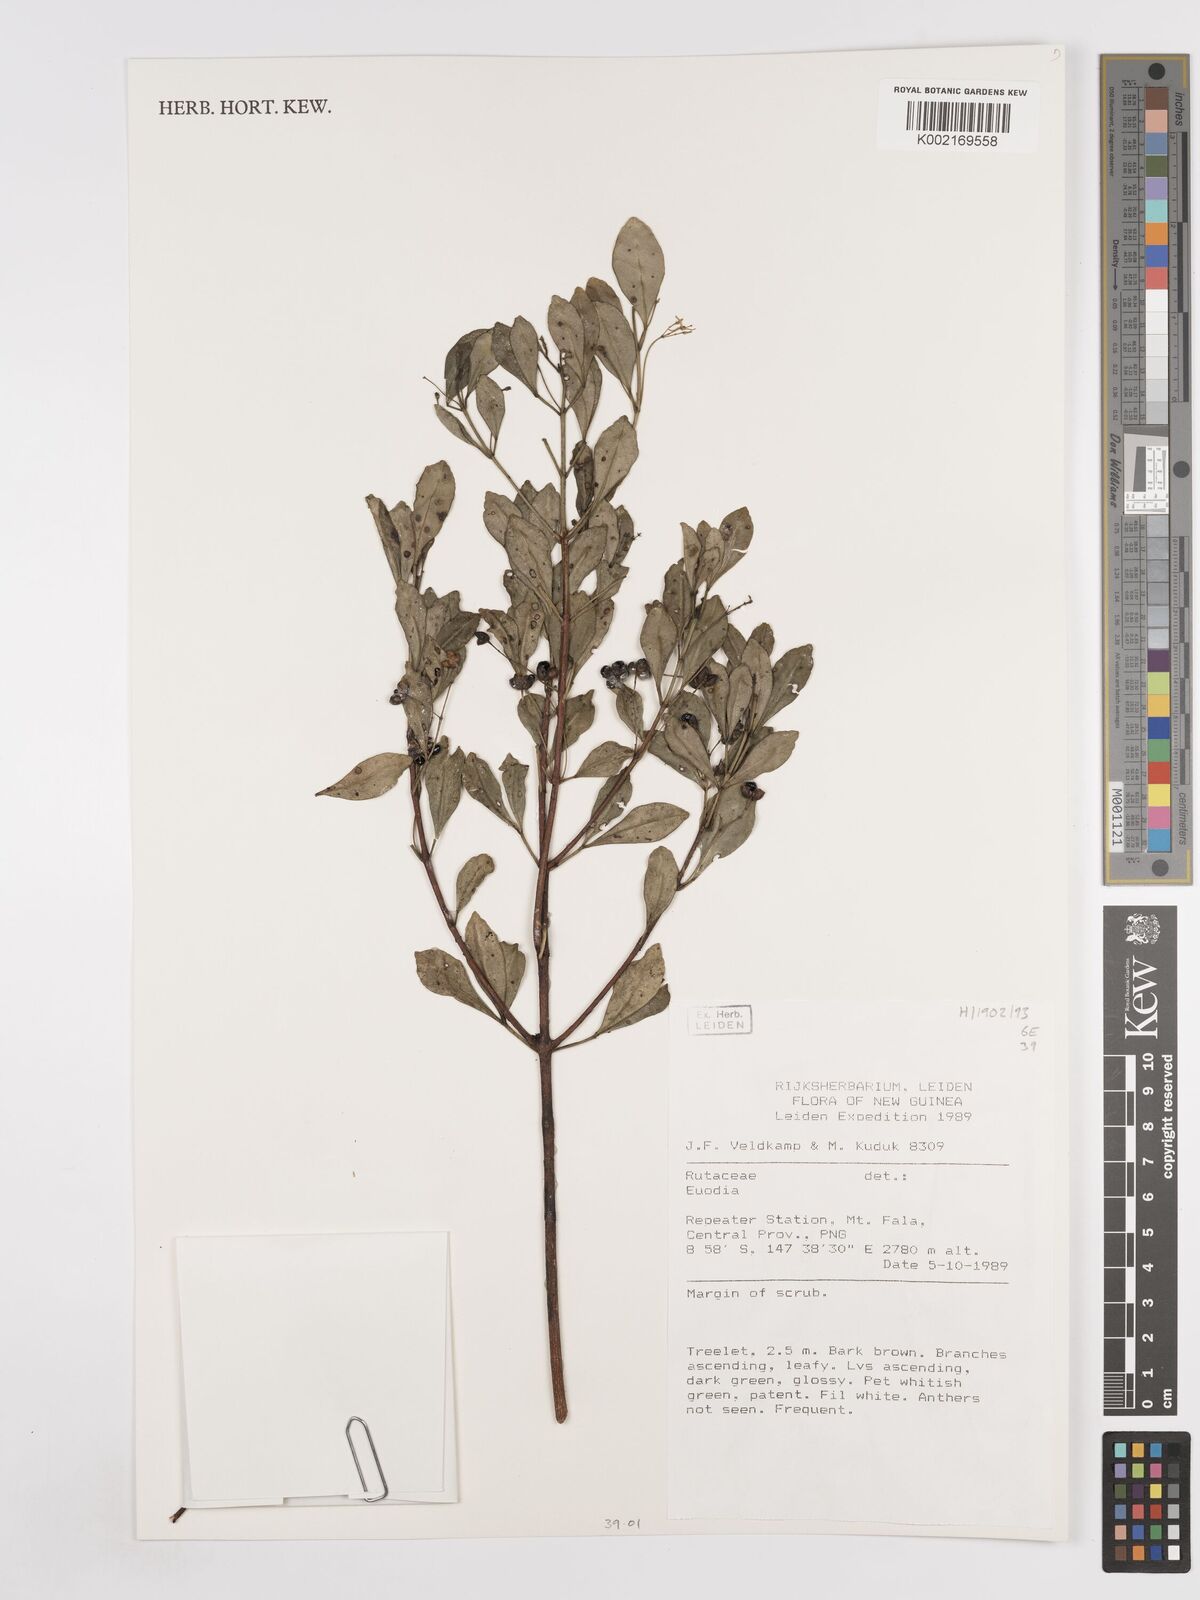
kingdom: Plantae
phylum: Tracheophyta
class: Magnoliopsida
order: Sapindales
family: Rutaceae
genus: Euodia
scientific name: Euodia
